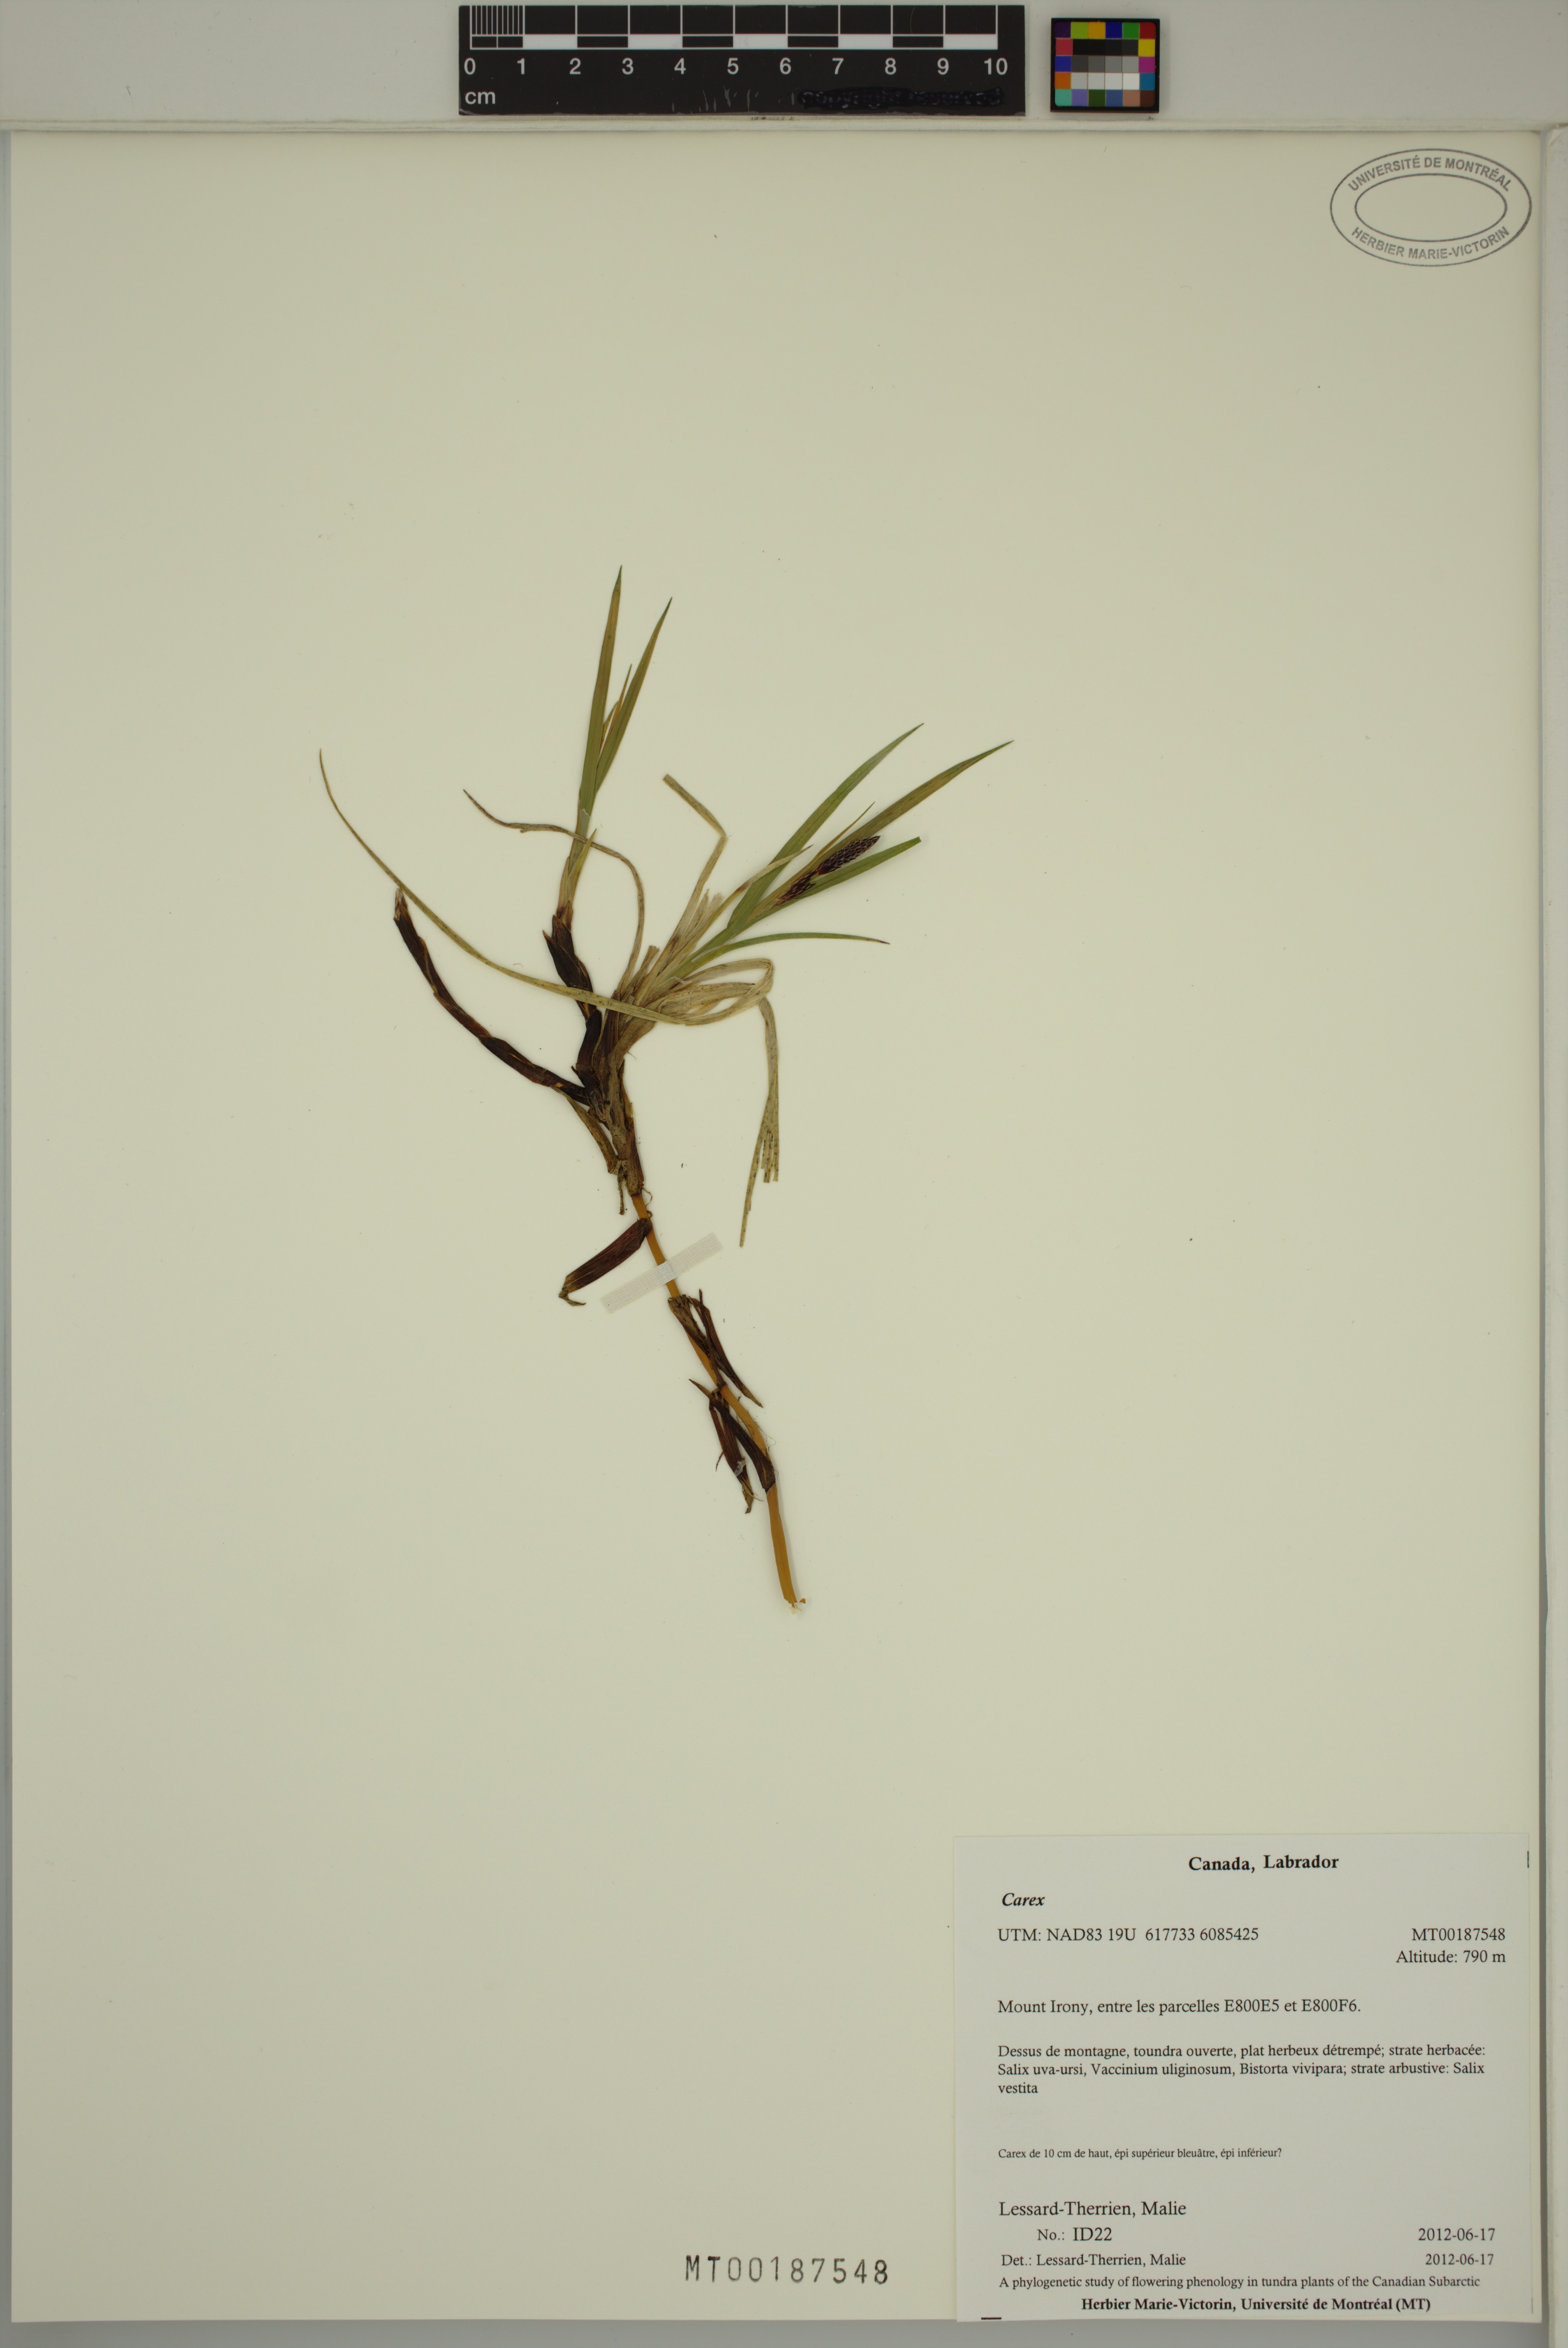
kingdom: Plantae
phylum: Tracheophyta
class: Liliopsida
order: Poales
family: Cyperaceae
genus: Carex
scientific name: Carex
